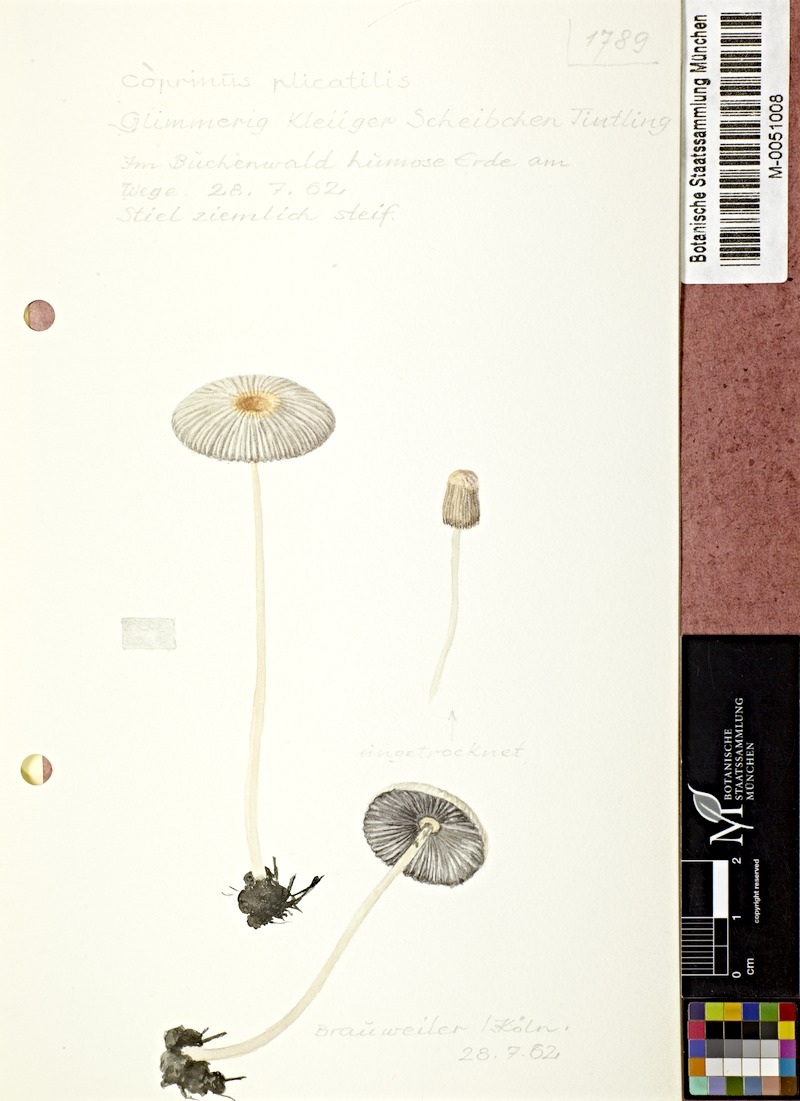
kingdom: Fungi
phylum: Basidiomycota
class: Agaricomycetes
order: Agaricales
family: Psathyrellaceae
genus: Parasola
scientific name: Parasola plicatilis
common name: Pleated inkcap
